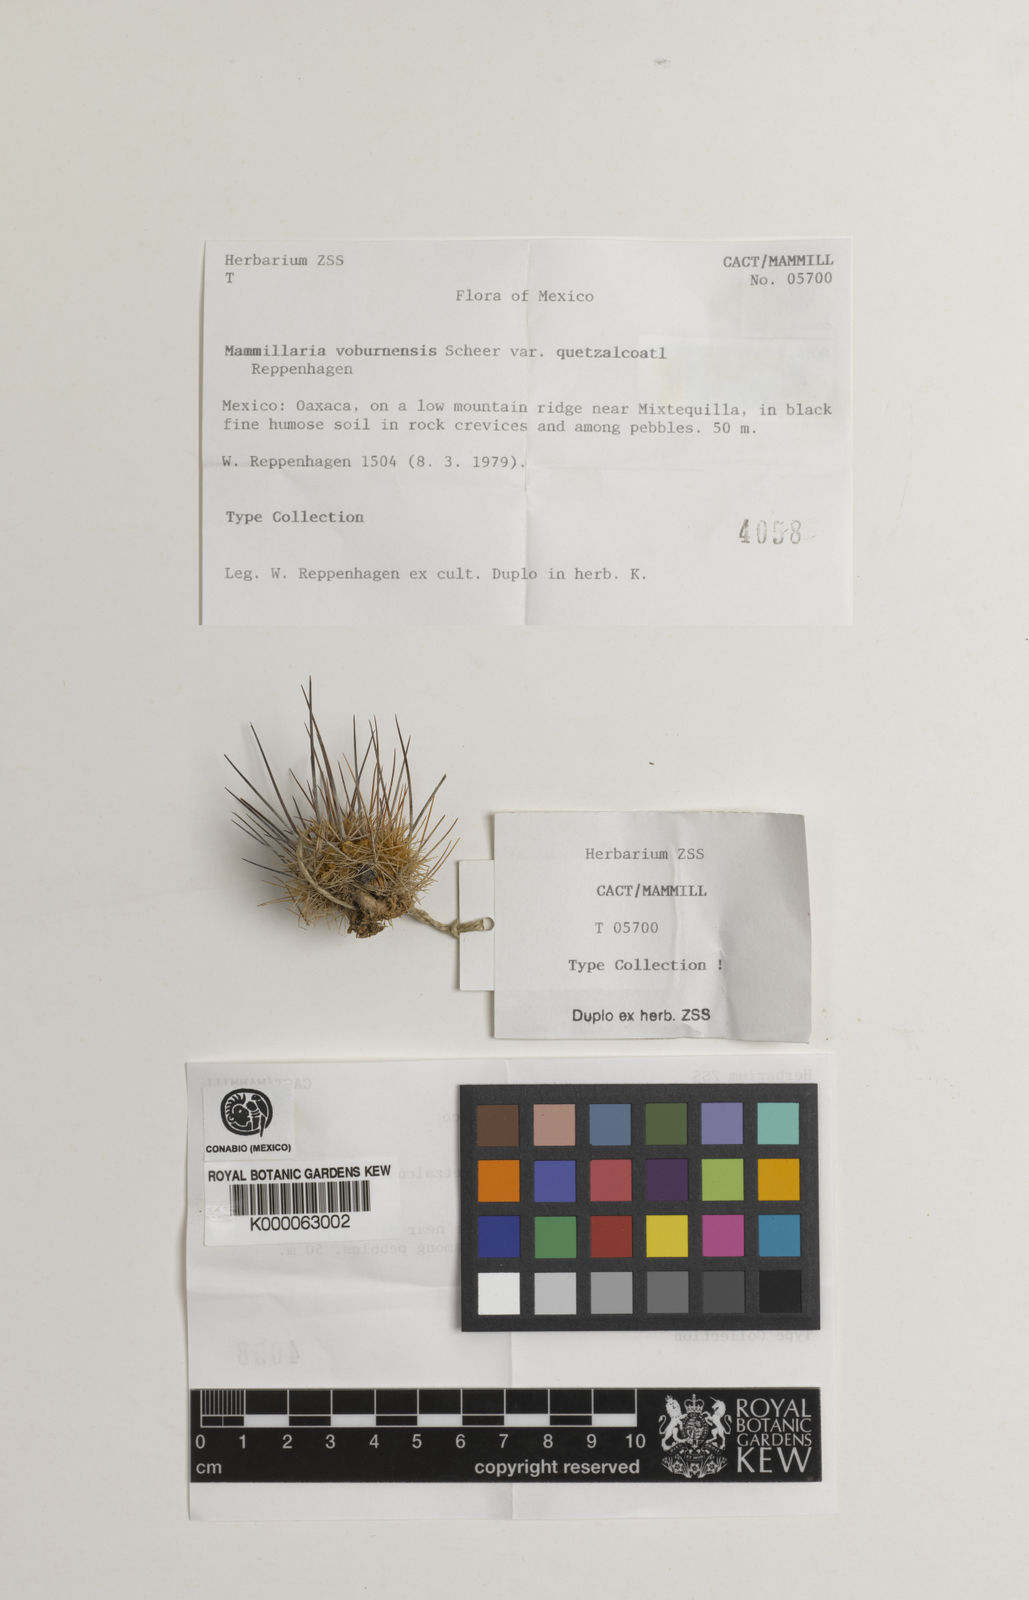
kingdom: Plantae
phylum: Tracheophyta
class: Magnoliopsida
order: Caryophyllales
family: Cactaceae
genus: Mammillaria
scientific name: Mammillaria voburnensis
